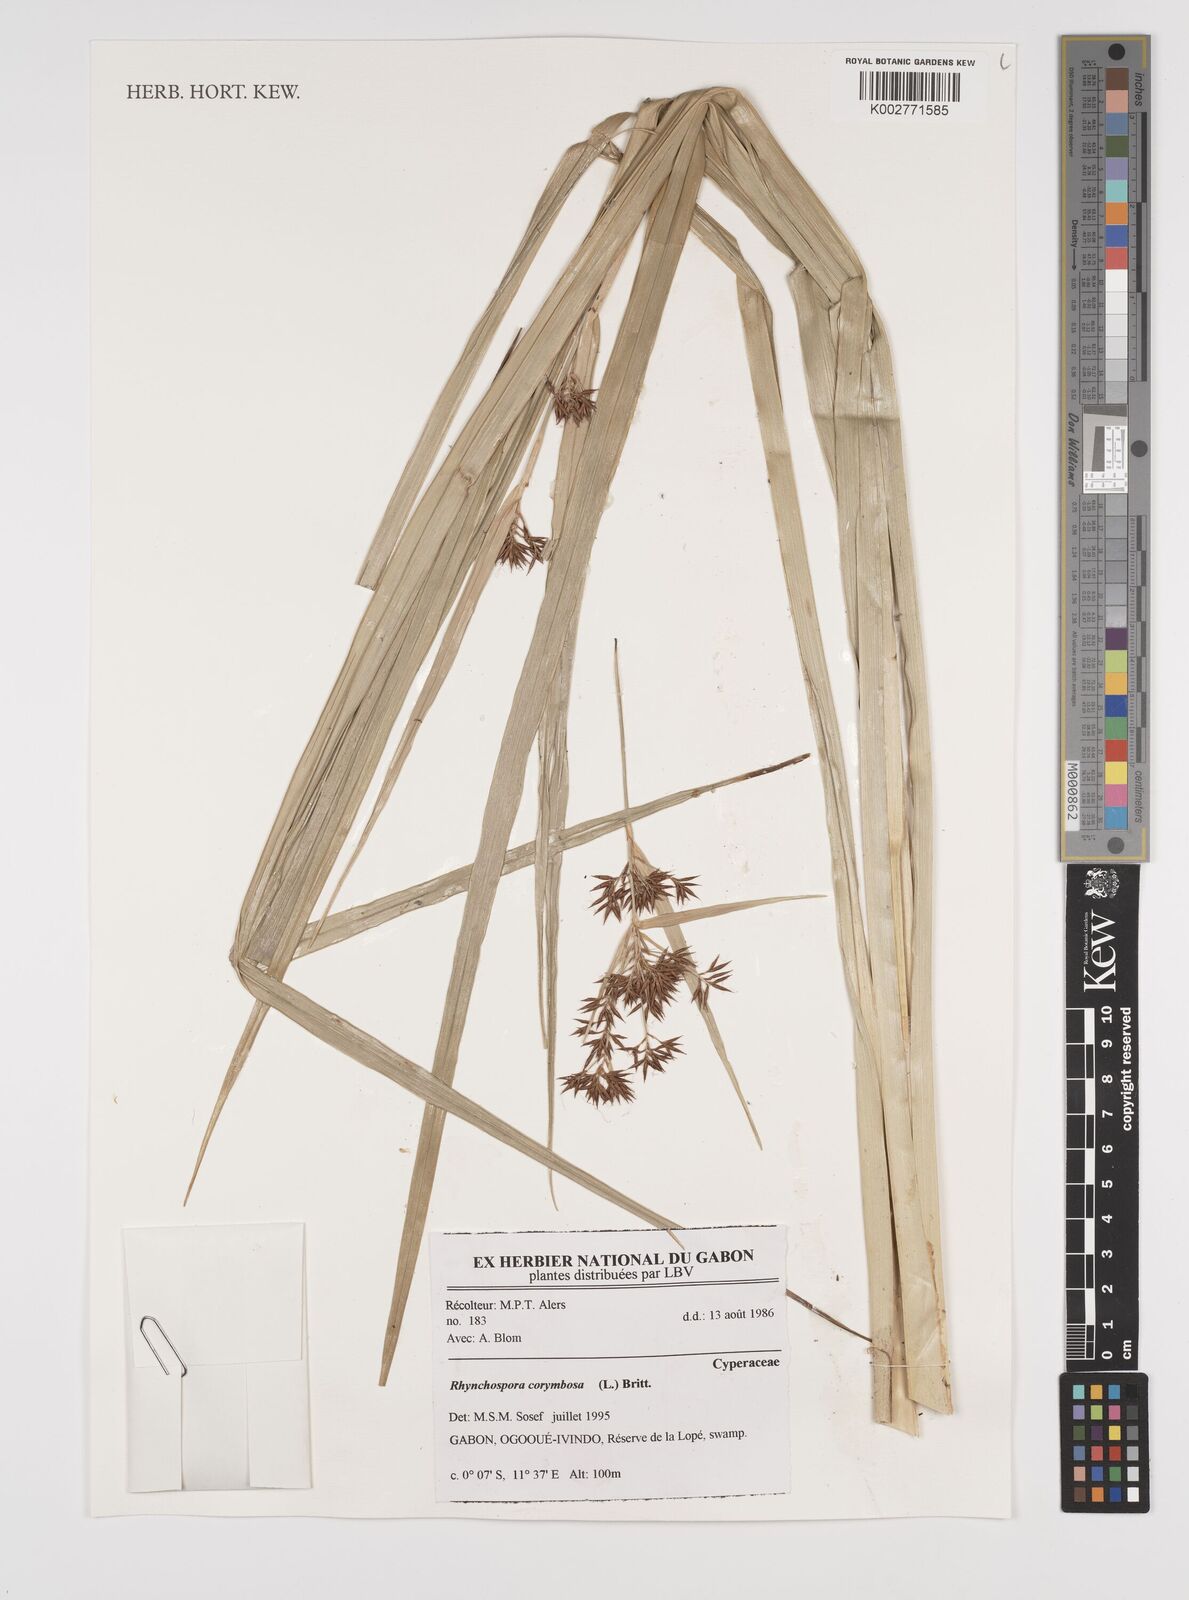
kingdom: Plantae
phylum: Tracheophyta
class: Liliopsida
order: Poales
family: Cyperaceae
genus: Rhynchospora
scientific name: Rhynchospora corymbosa
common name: Golden beak sedge
